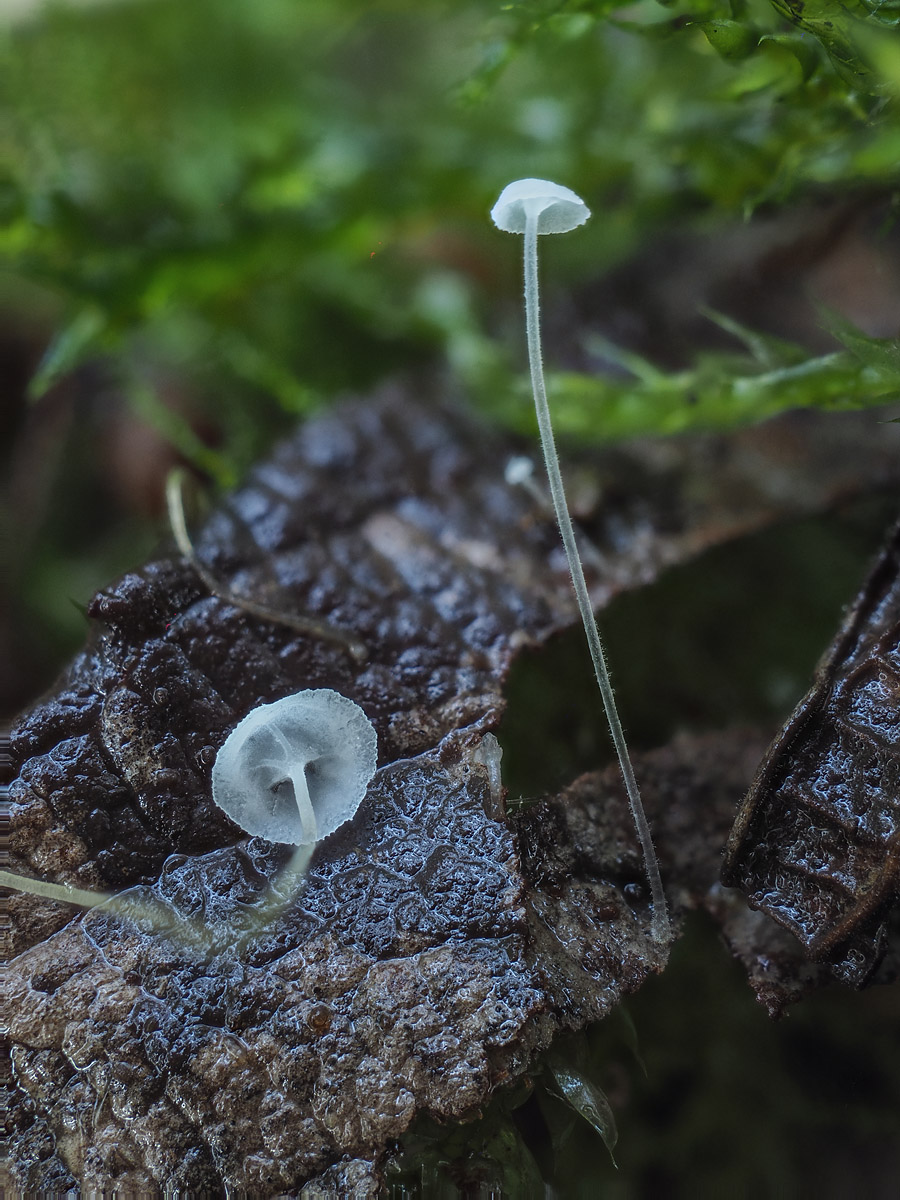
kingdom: Fungi
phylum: Basidiomycota
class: Agaricomycetes
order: Agaricales
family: Mycenaceae
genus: Hemimycena
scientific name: Hemimycena pseudogibba
